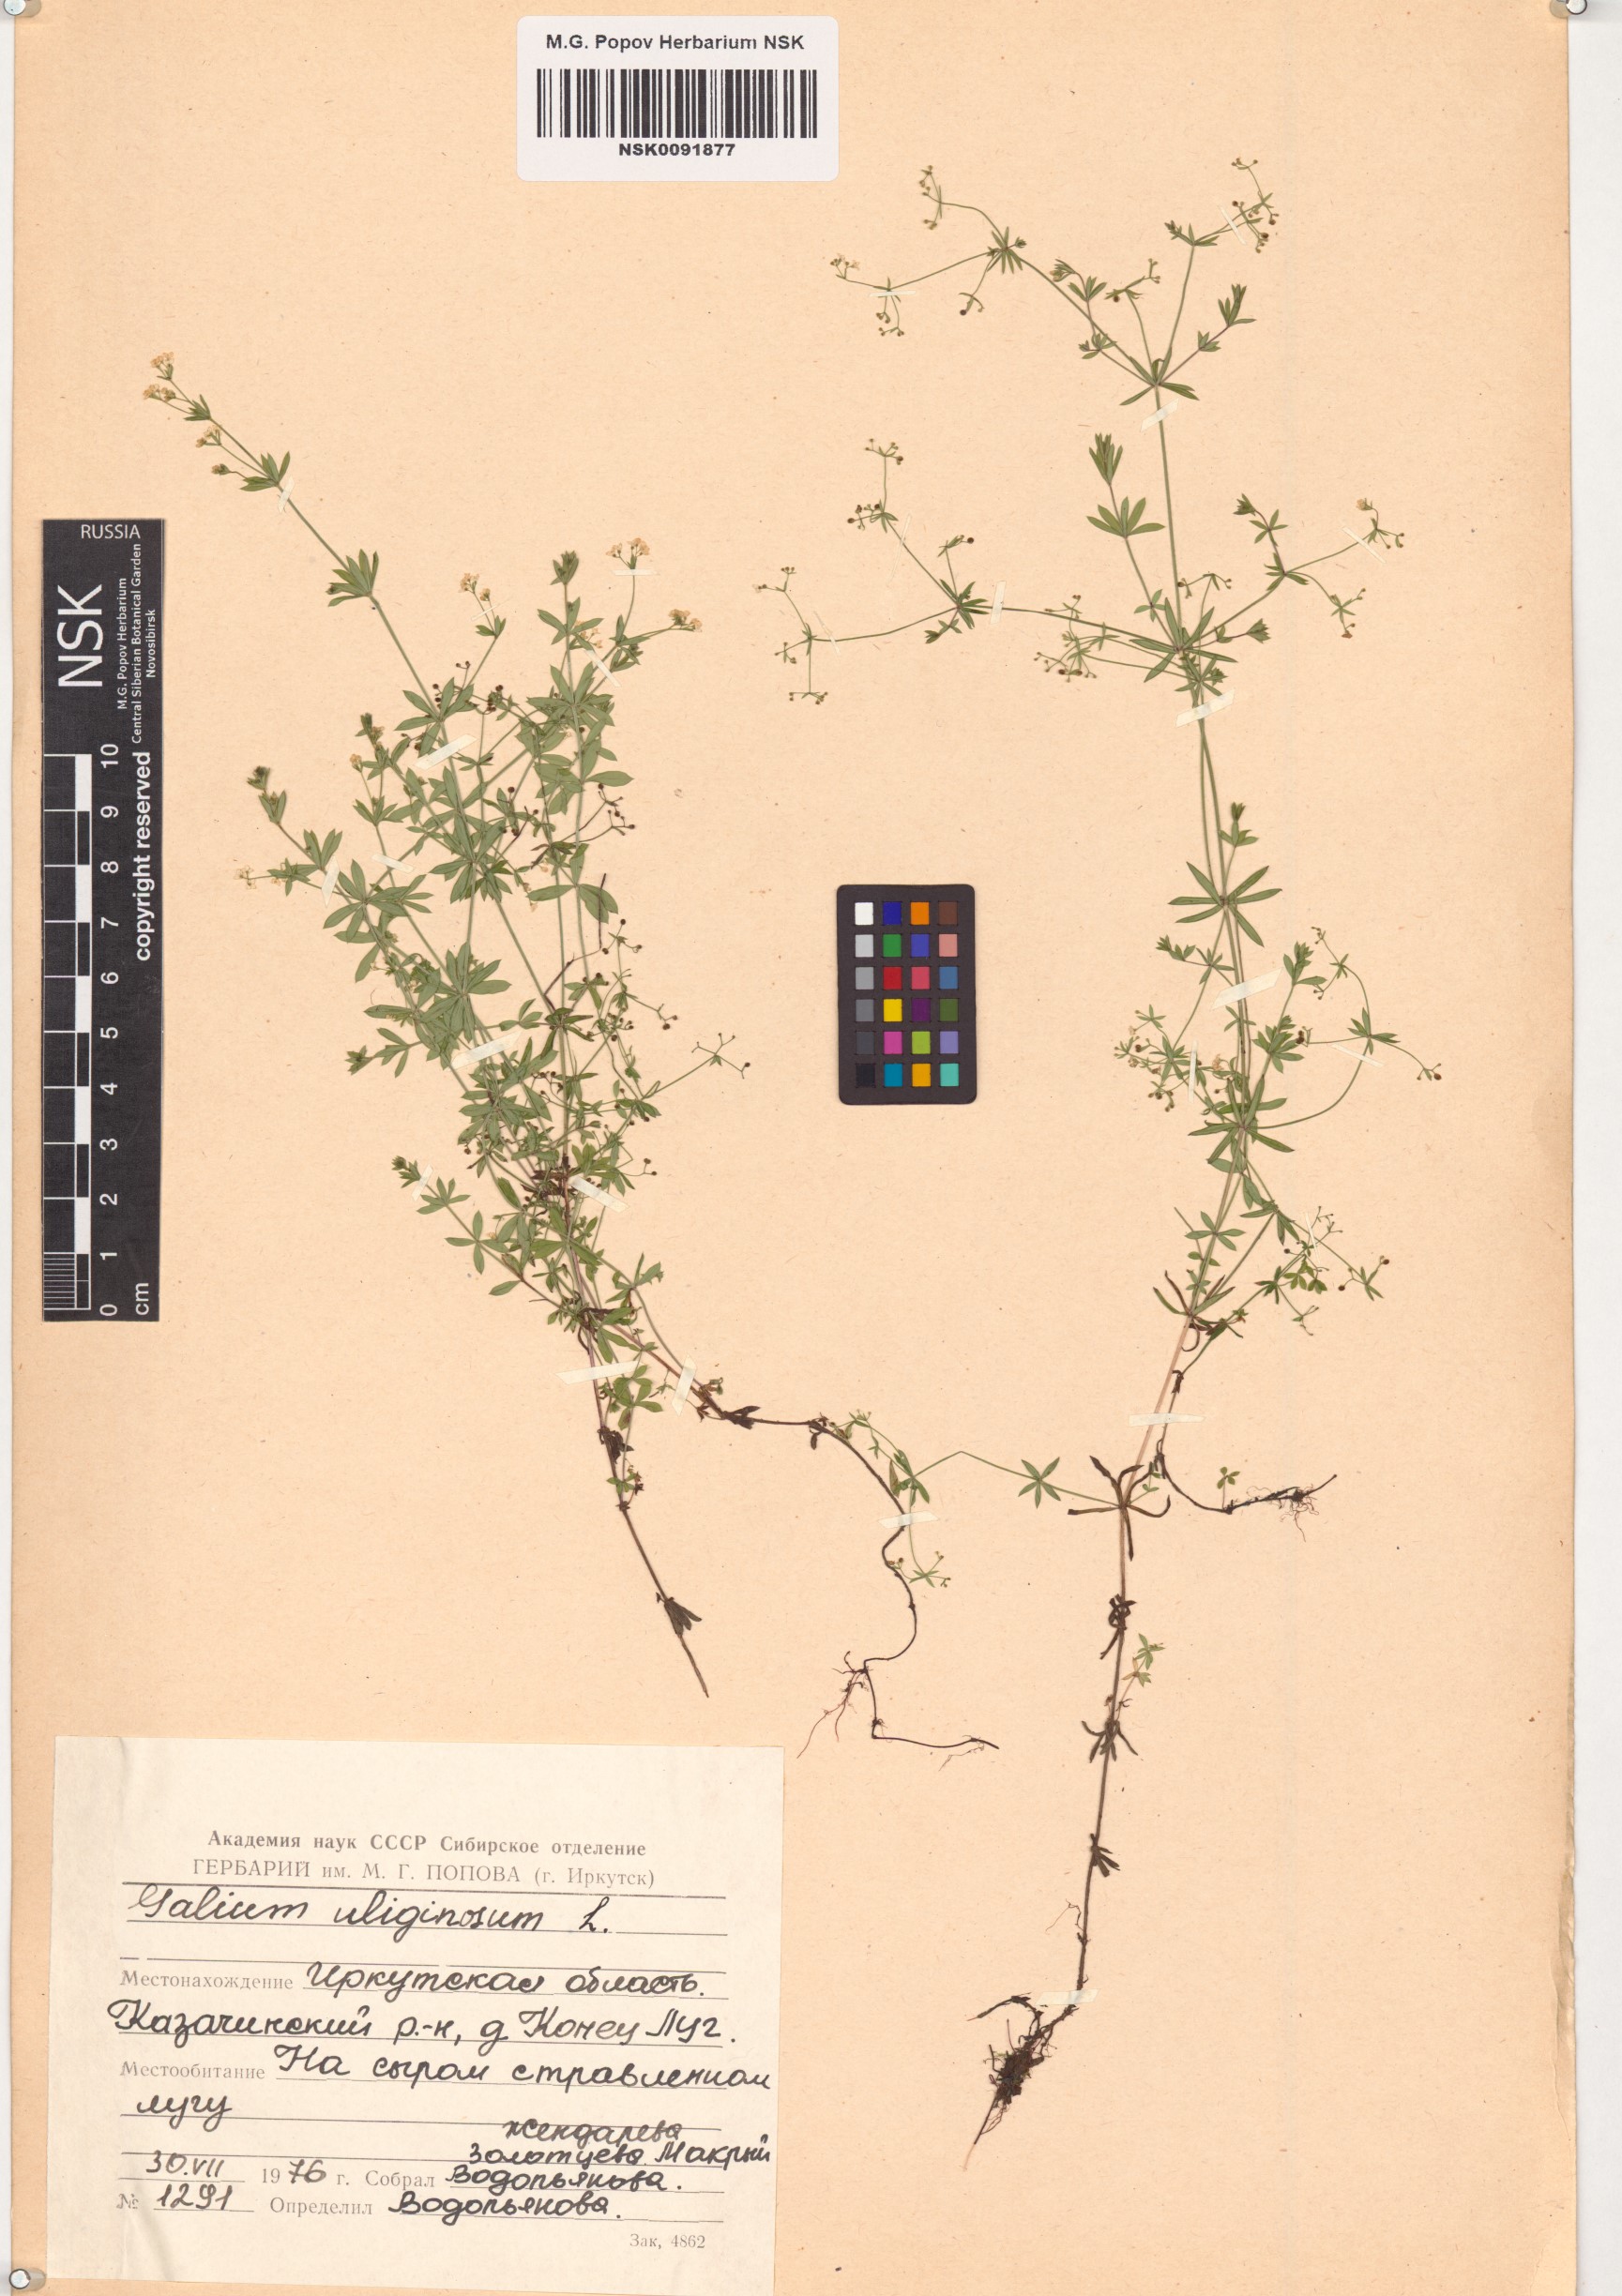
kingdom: Plantae
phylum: Tracheophyta
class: Magnoliopsida
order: Gentianales
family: Rubiaceae
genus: Galium
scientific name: Galium uliginosum
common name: Fen bedstraw
